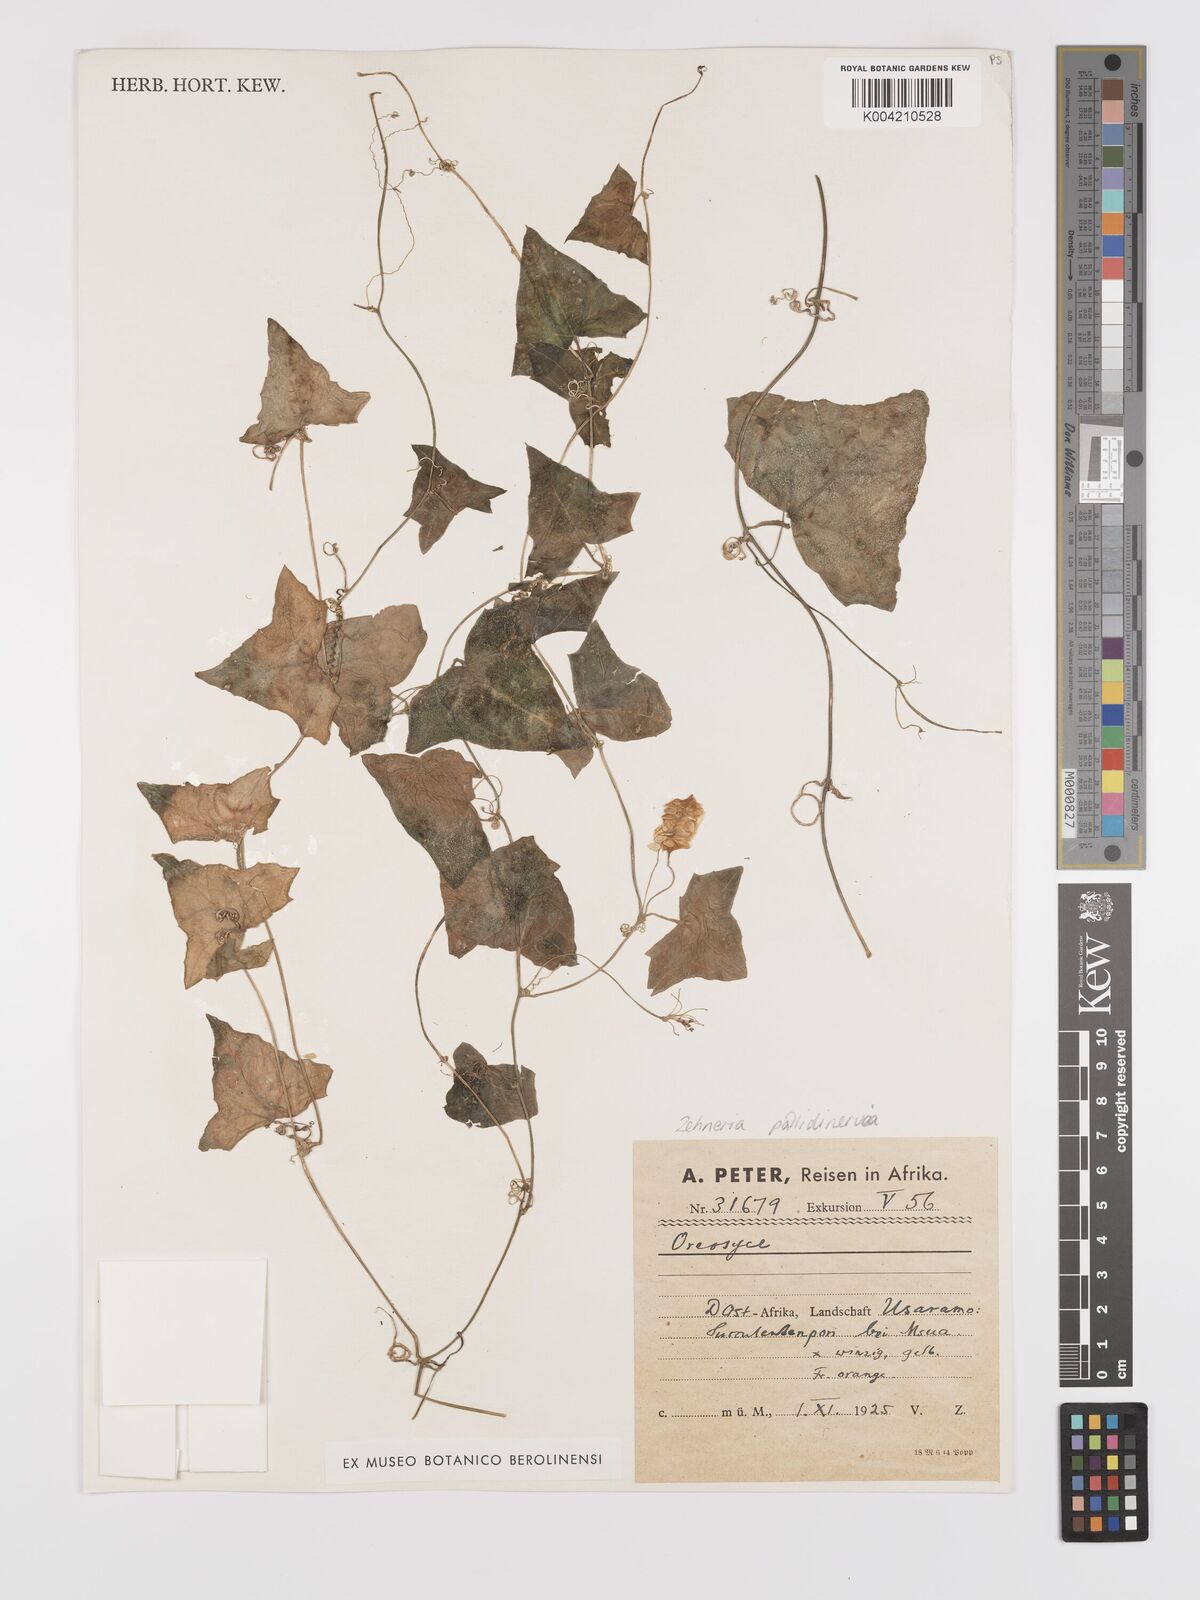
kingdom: Plantae
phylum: Tracheophyta
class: Magnoliopsida
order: Cucurbitales
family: Cucurbitaceae
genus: Zehneria
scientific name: Zehneria pallidinervia
